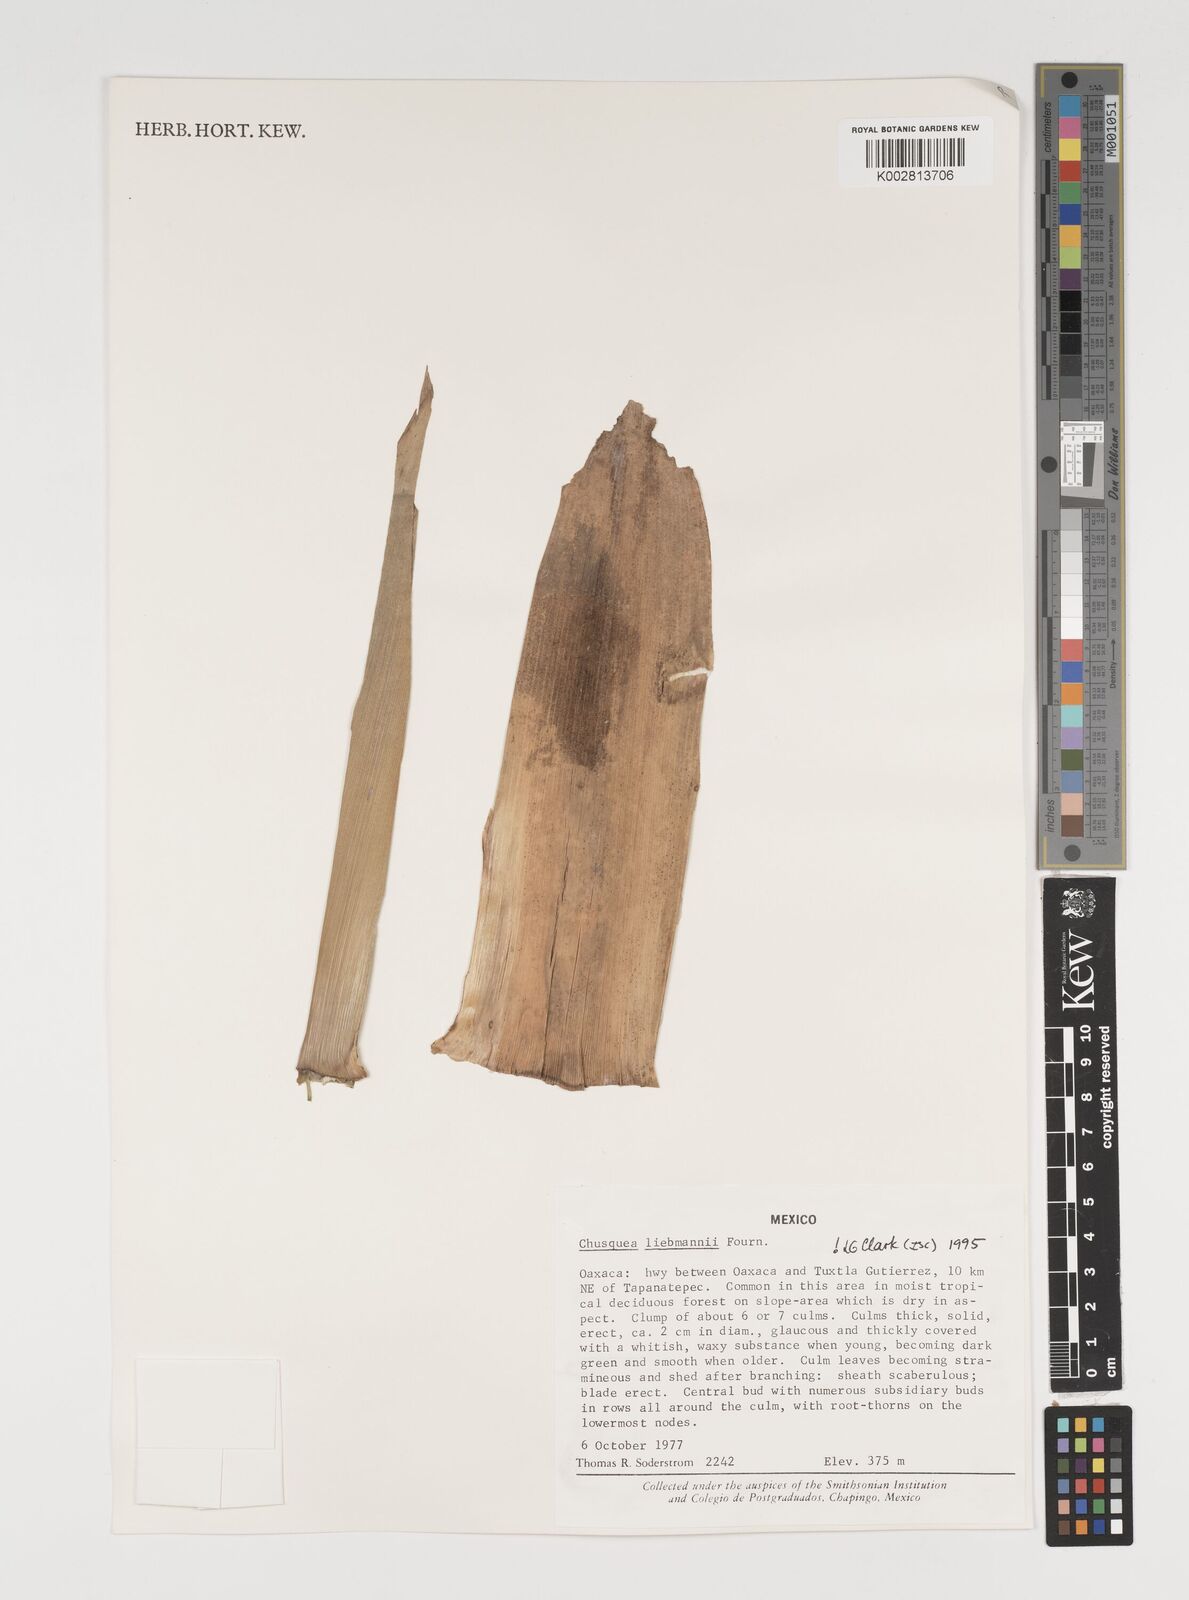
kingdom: Plantae
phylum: Tracheophyta
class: Liliopsida
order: Poales
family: Poaceae
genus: Chusquea
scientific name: Chusquea liebmannii
